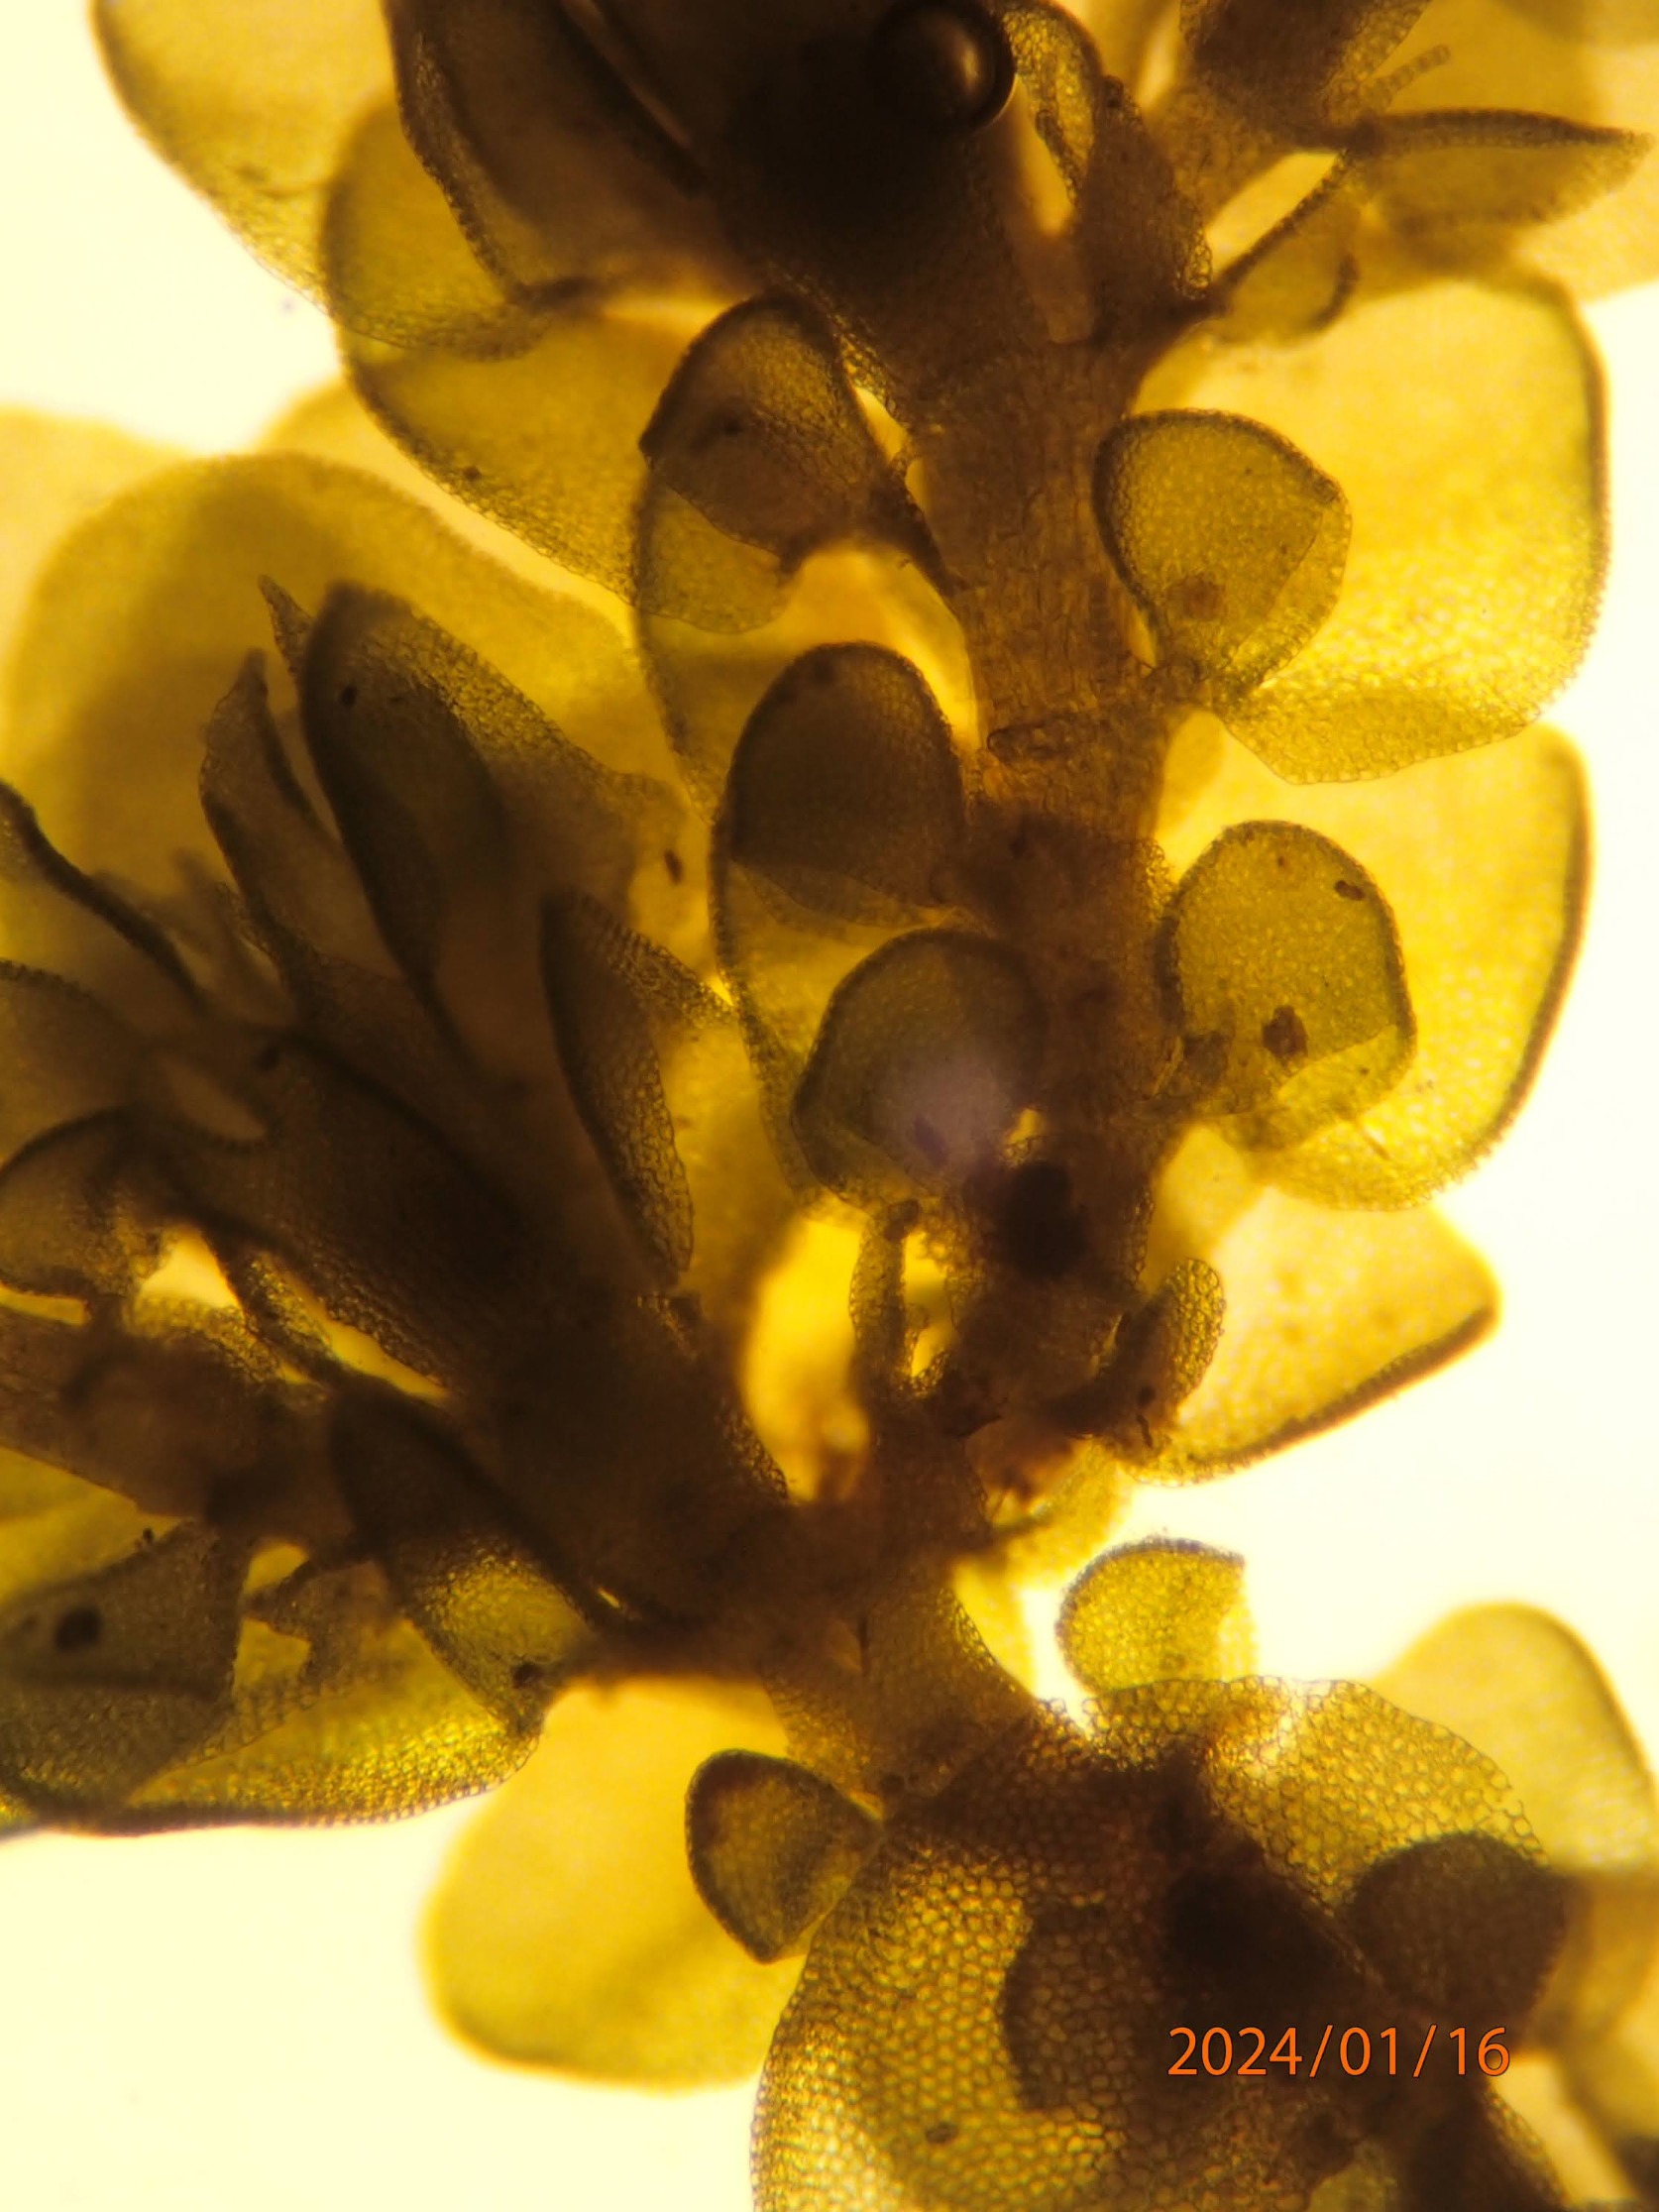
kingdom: Plantae
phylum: Marchantiophyta
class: Jungermanniopsida
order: Porellales
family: Frullaniaceae
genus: Frullania
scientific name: Frullania dilatata
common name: Mat bronzemos
